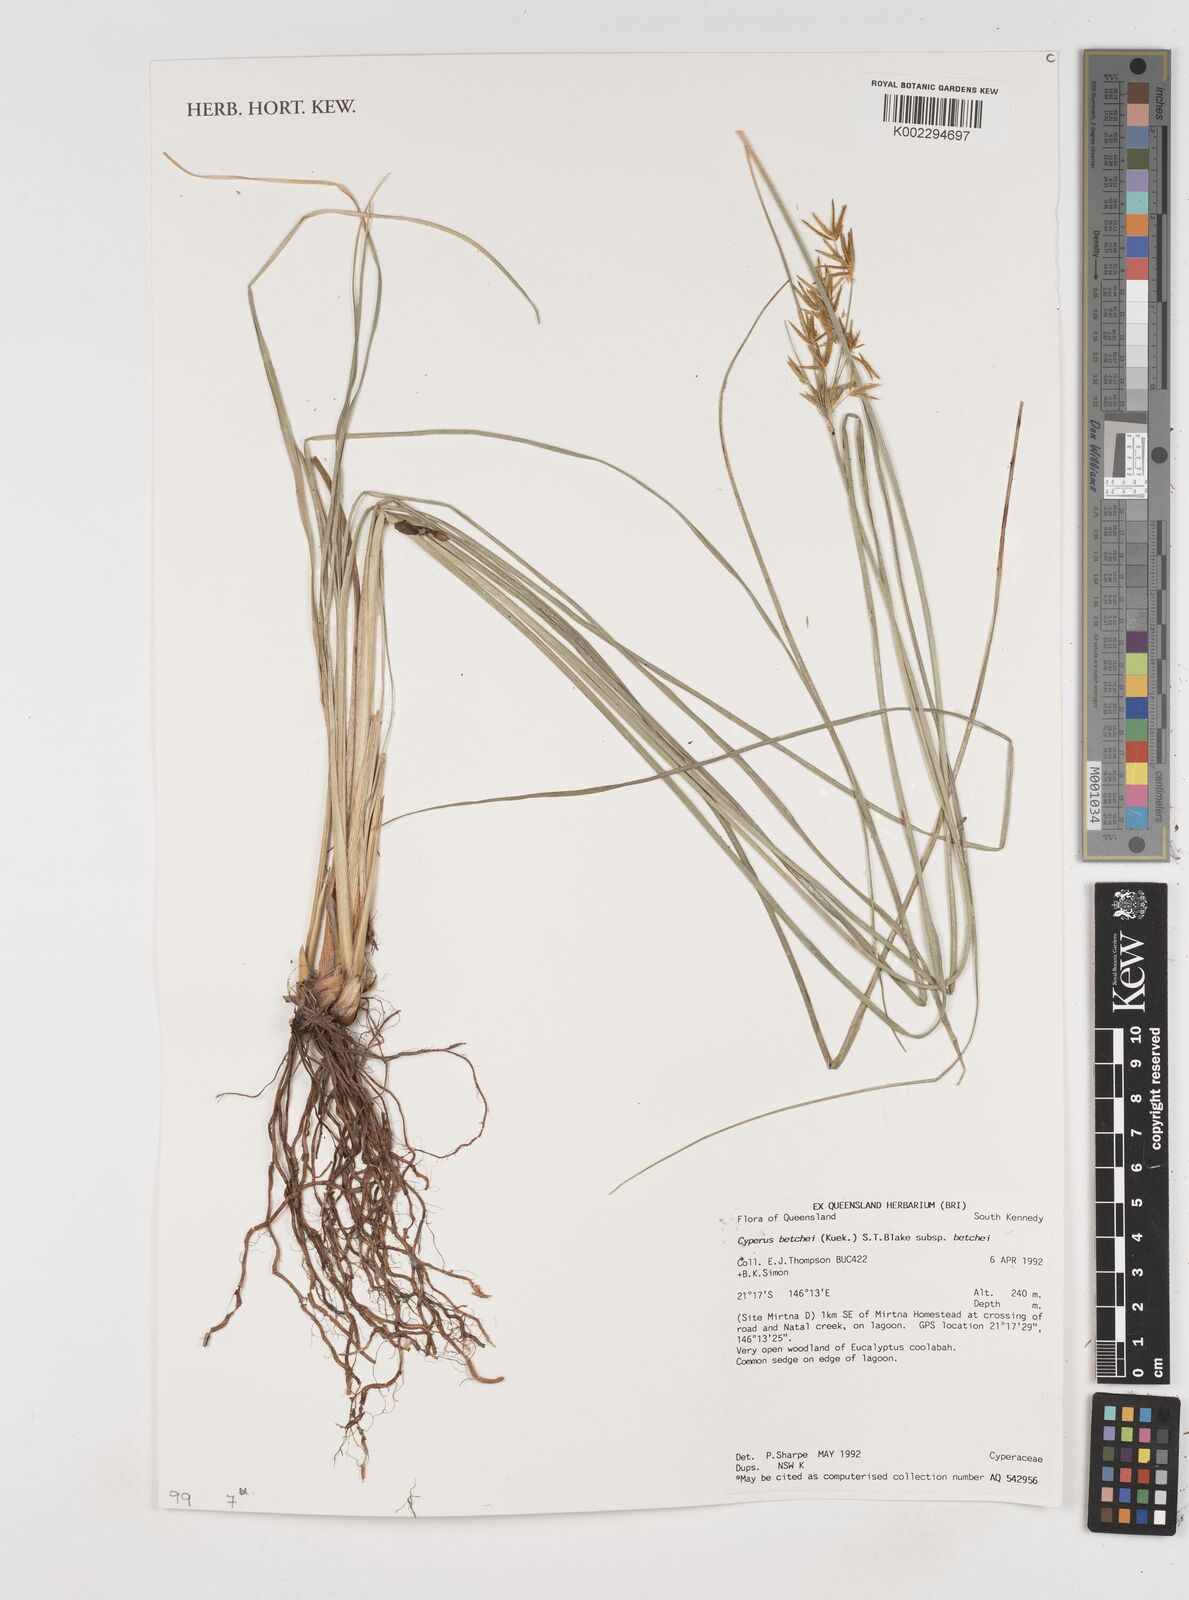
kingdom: Plantae
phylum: Tracheophyta
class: Liliopsida
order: Poales
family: Cyperaceae
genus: Cyperus
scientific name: Cyperus betchei
